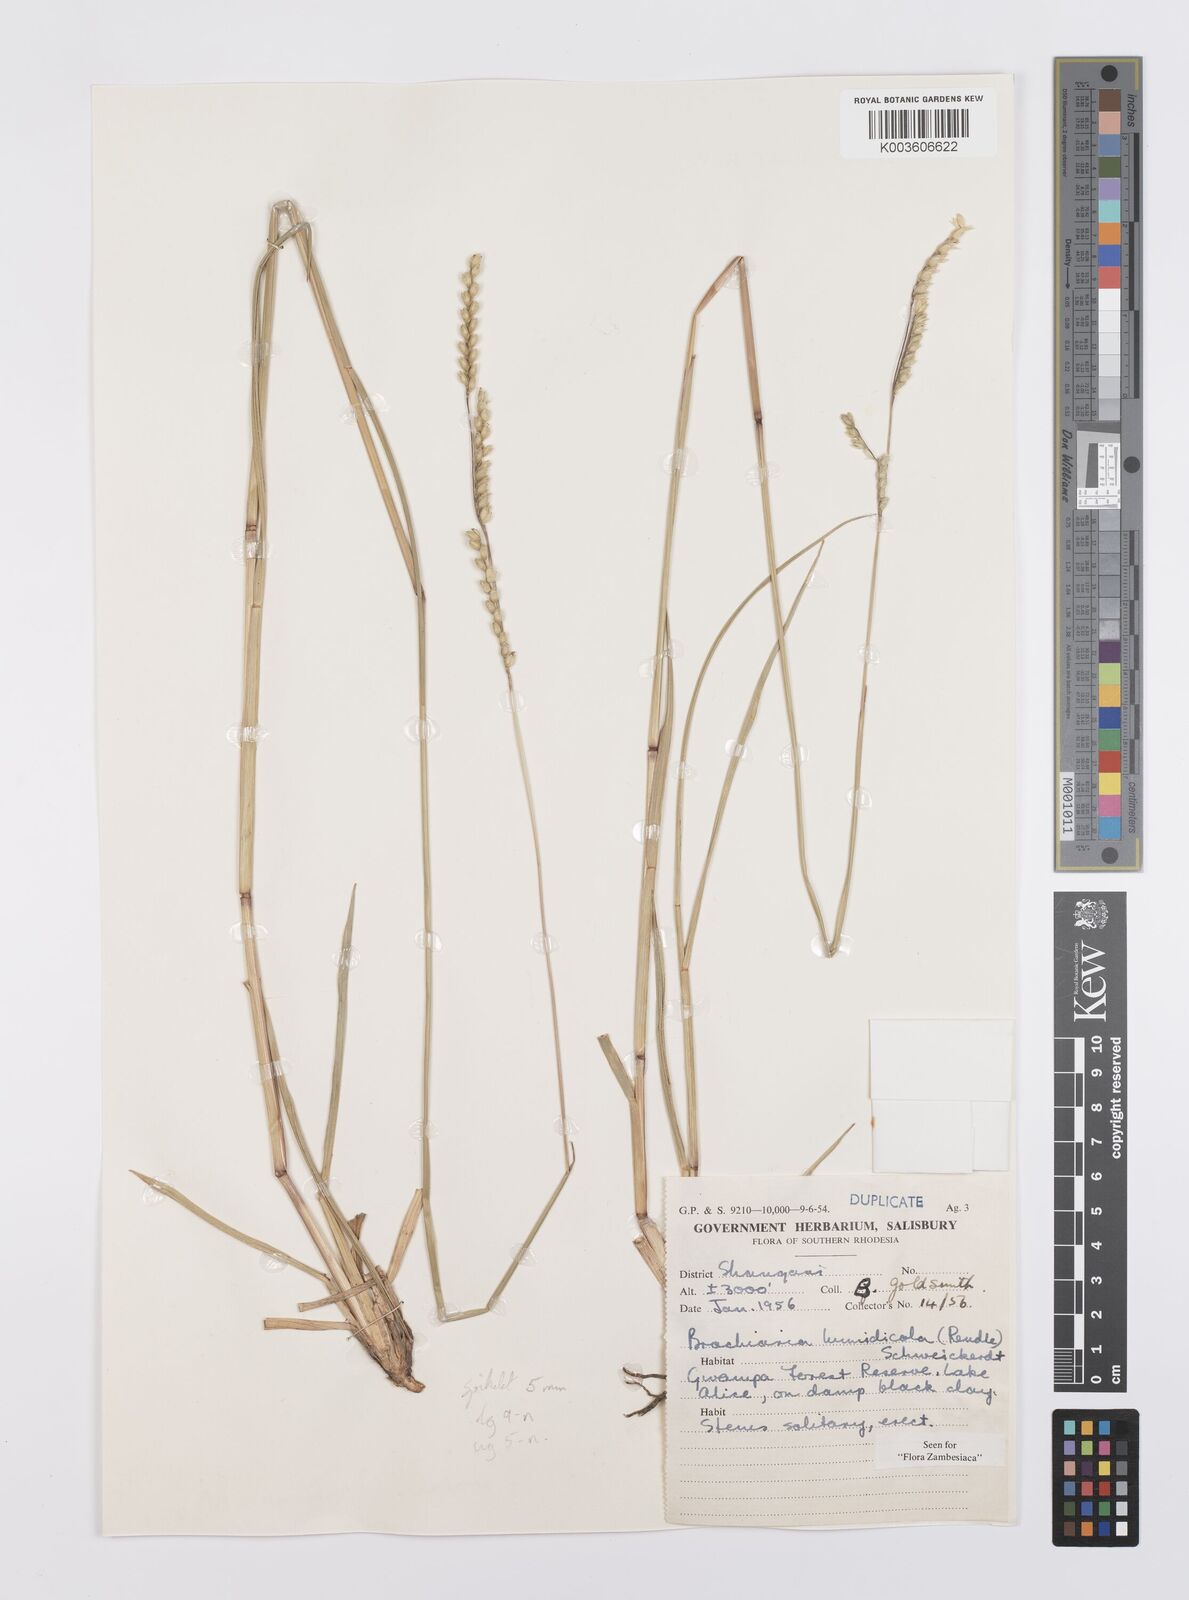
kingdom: Plantae
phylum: Tracheophyta
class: Liliopsida
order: Poales
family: Poaceae
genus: Urochloa
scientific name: Urochloa dictyoneura
